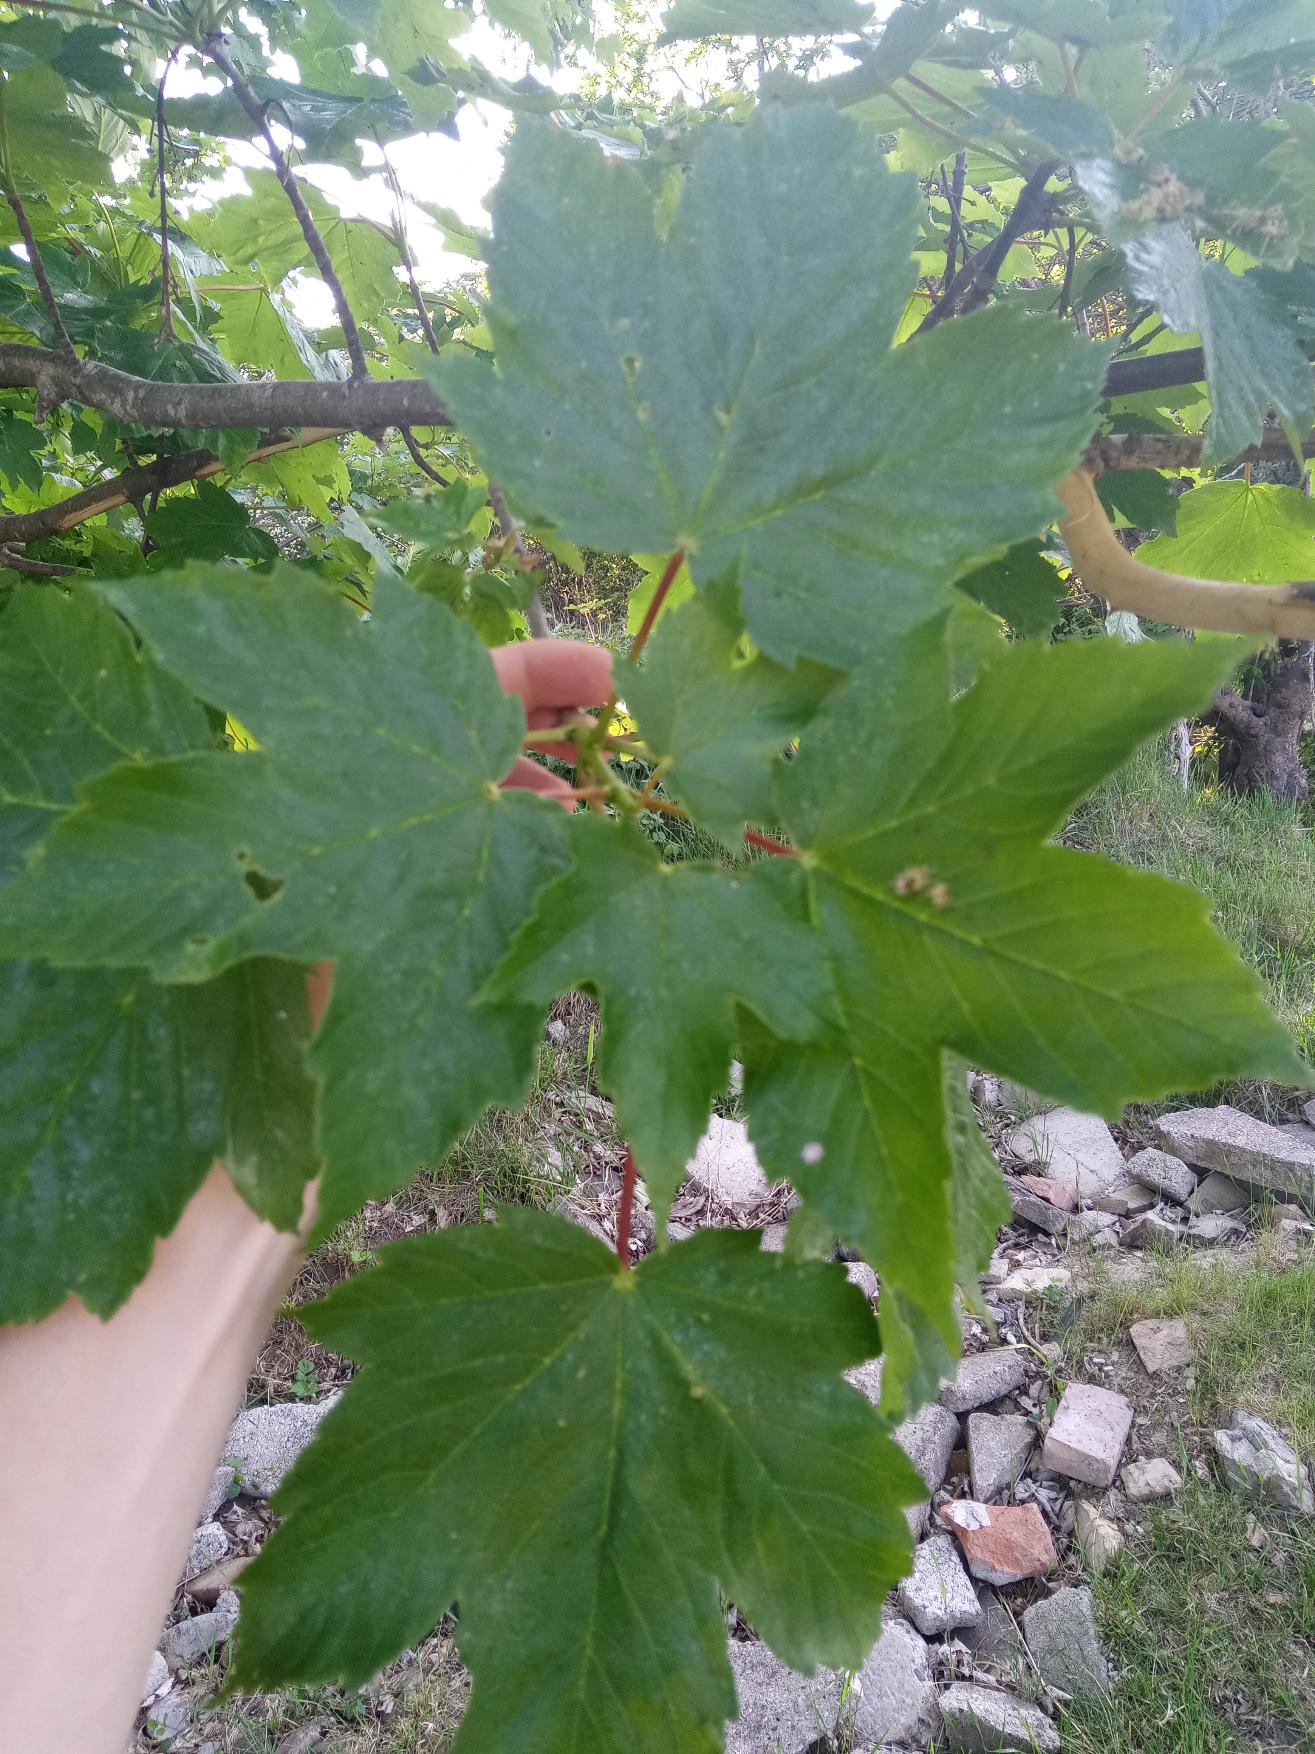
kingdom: Plantae
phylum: Tracheophyta
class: Magnoliopsida
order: Sapindales
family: Sapindaceae
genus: Acer
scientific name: Acer pseudoplatanus
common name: Ahorn
